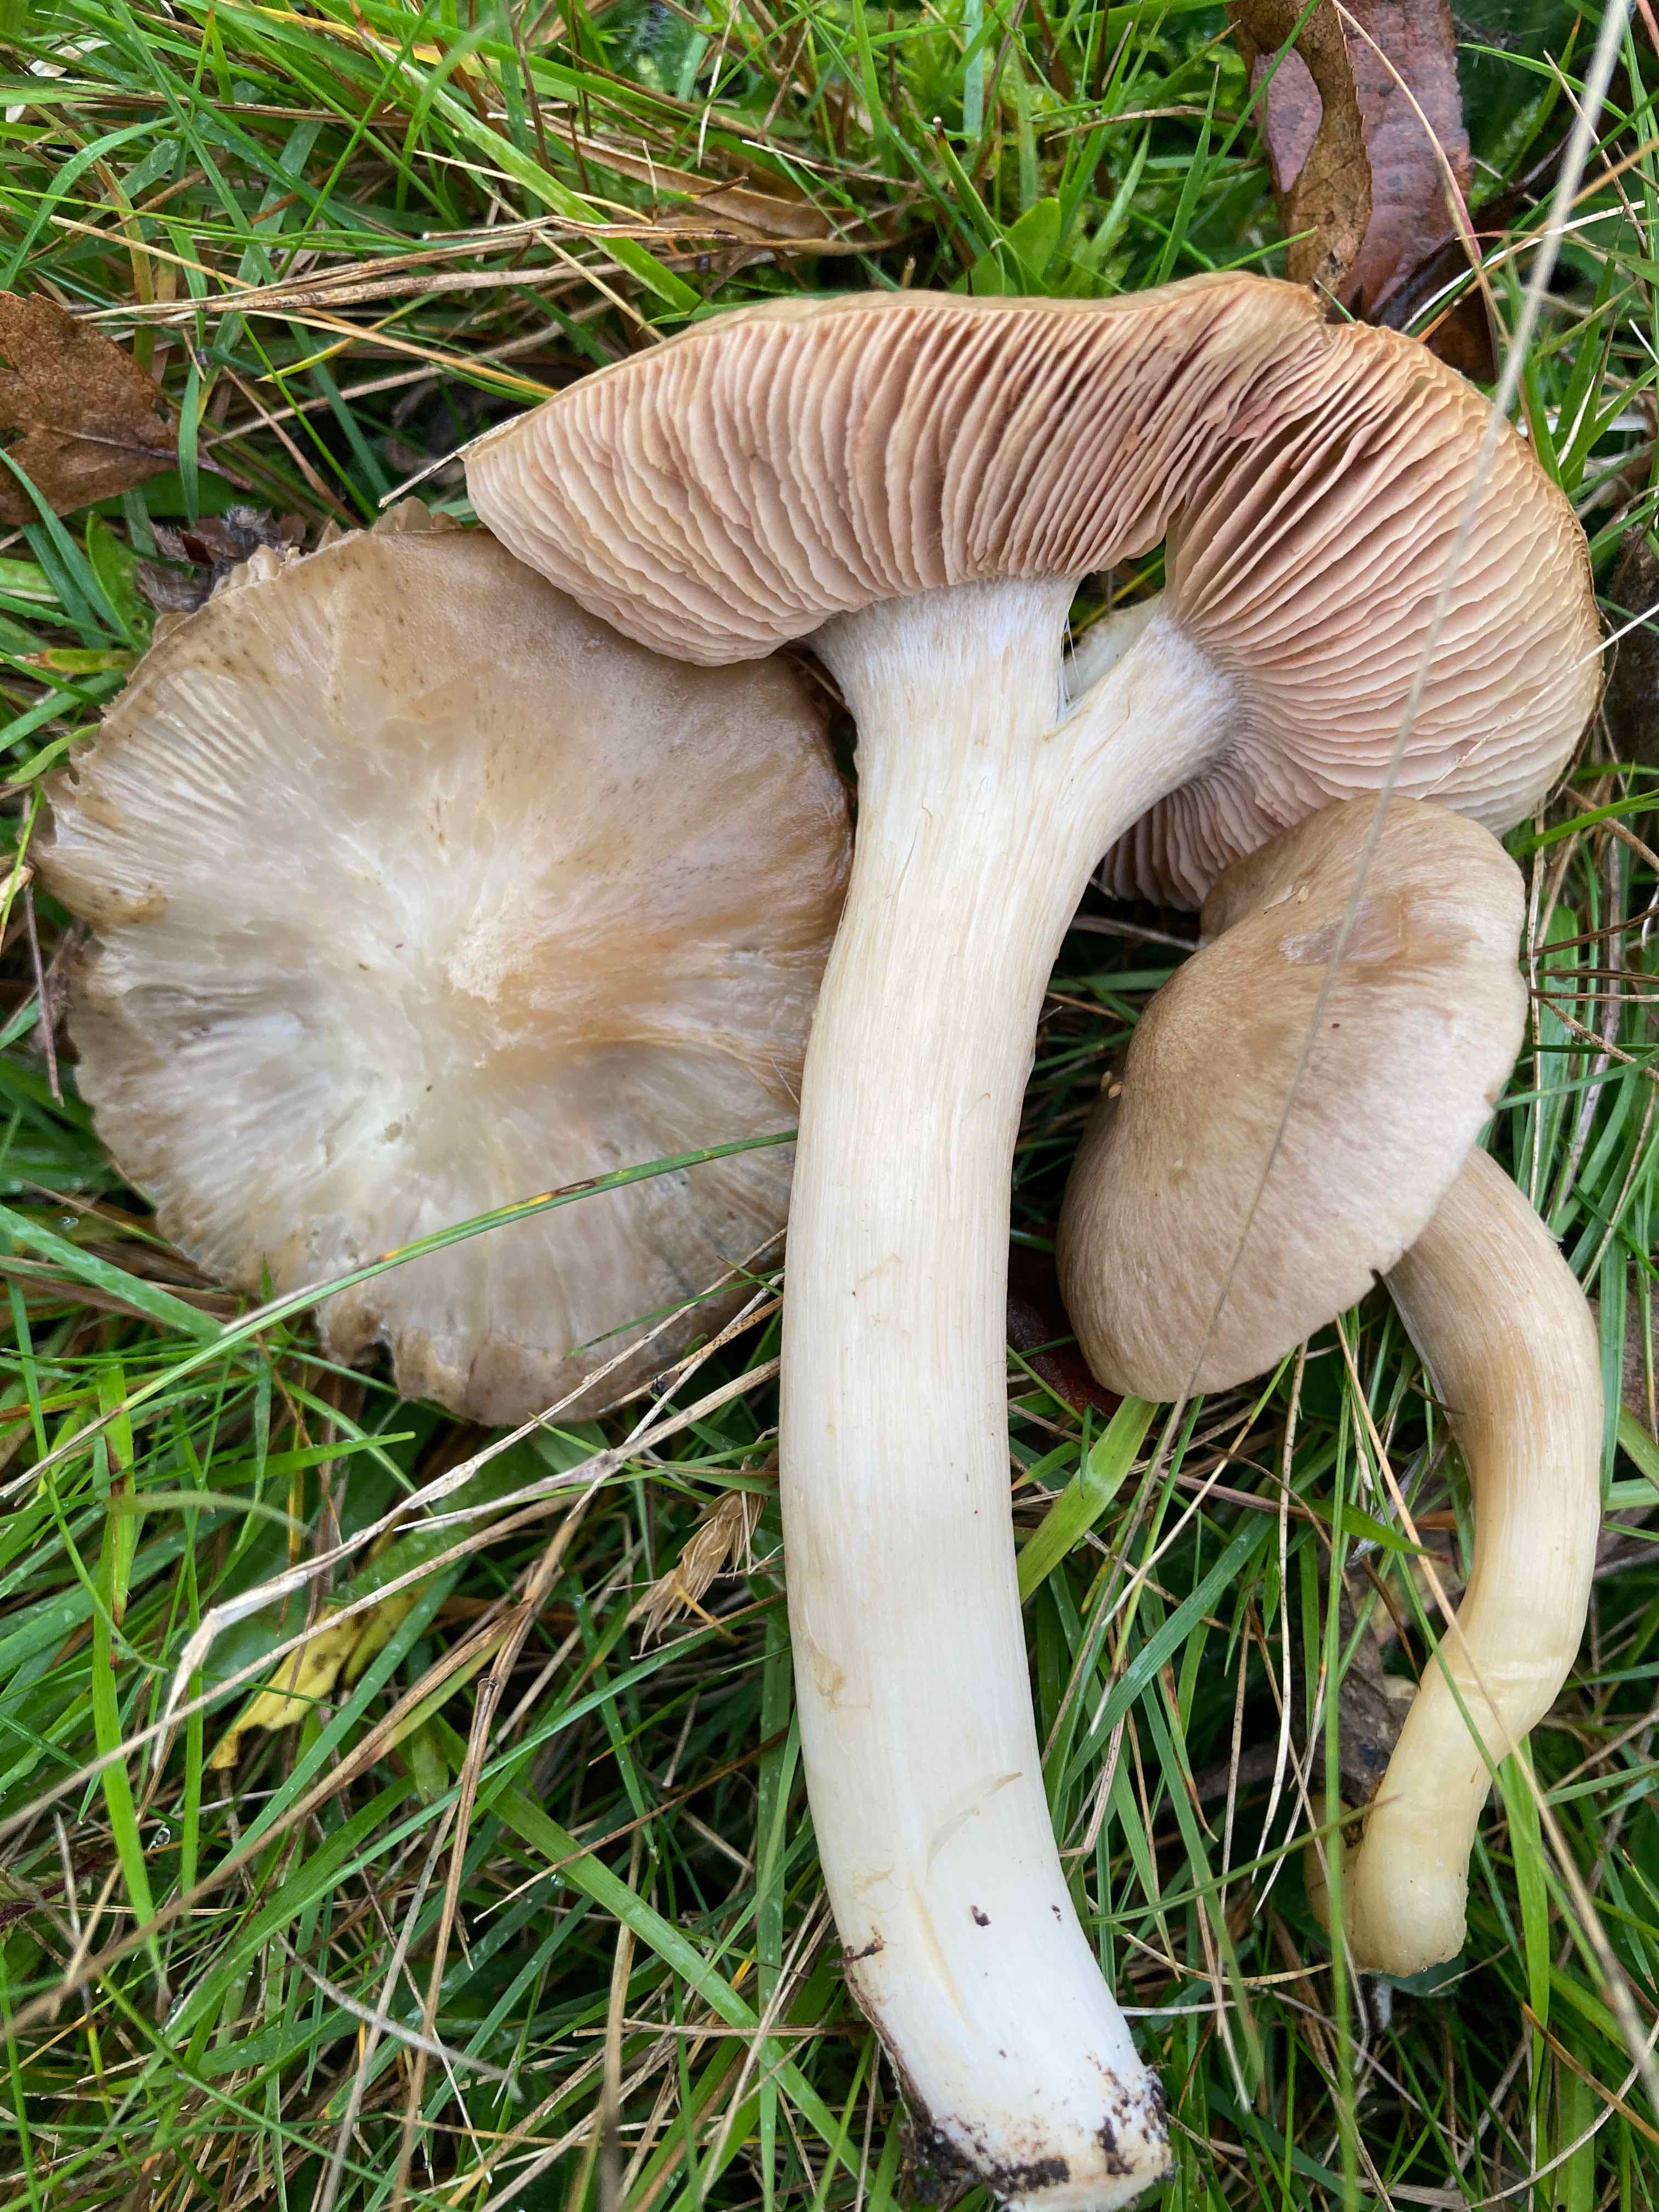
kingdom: Fungi
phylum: Basidiomycota
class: Agaricomycetes
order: Agaricales
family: Entolomataceae
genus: Entoloma
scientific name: Entoloma prunuloides
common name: mel-rødblad
